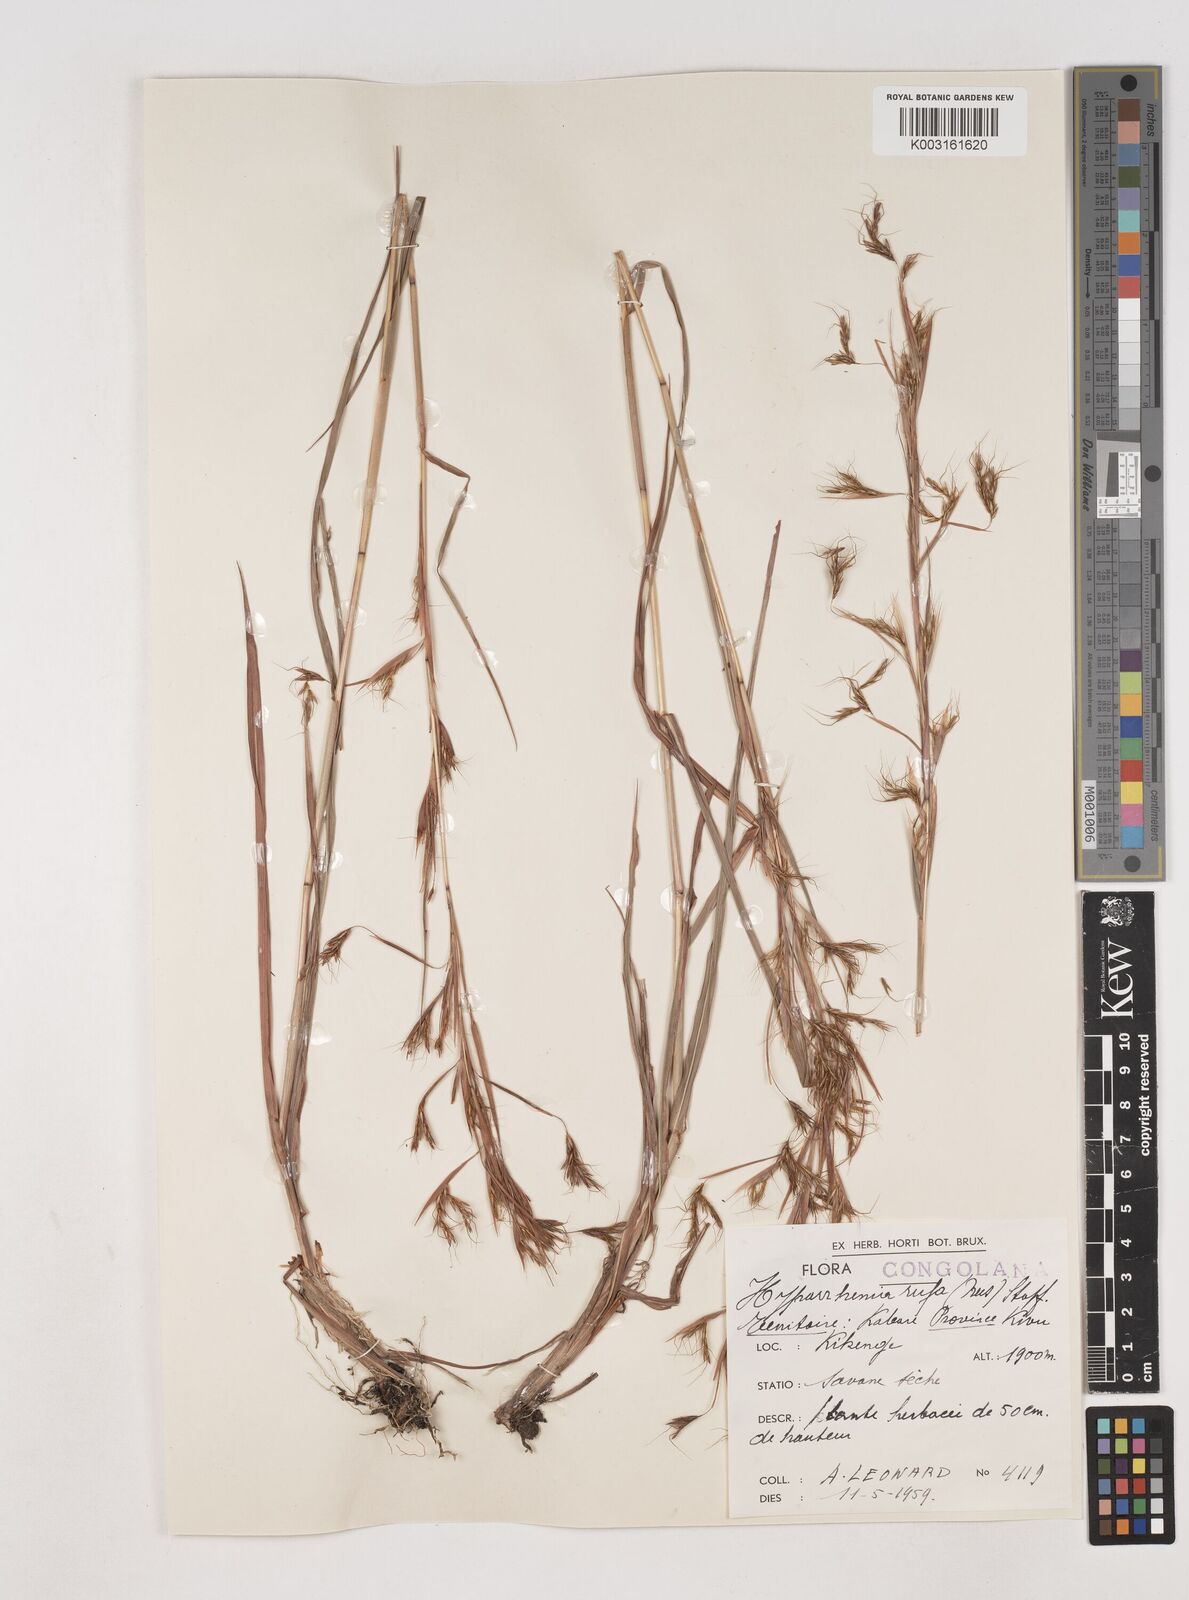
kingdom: Plantae
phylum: Tracheophyta
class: Liliopsida
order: Poales
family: Poaceae
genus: Hyparrhenia
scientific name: Hyparrhenia rufa
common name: Jaraguagrass
